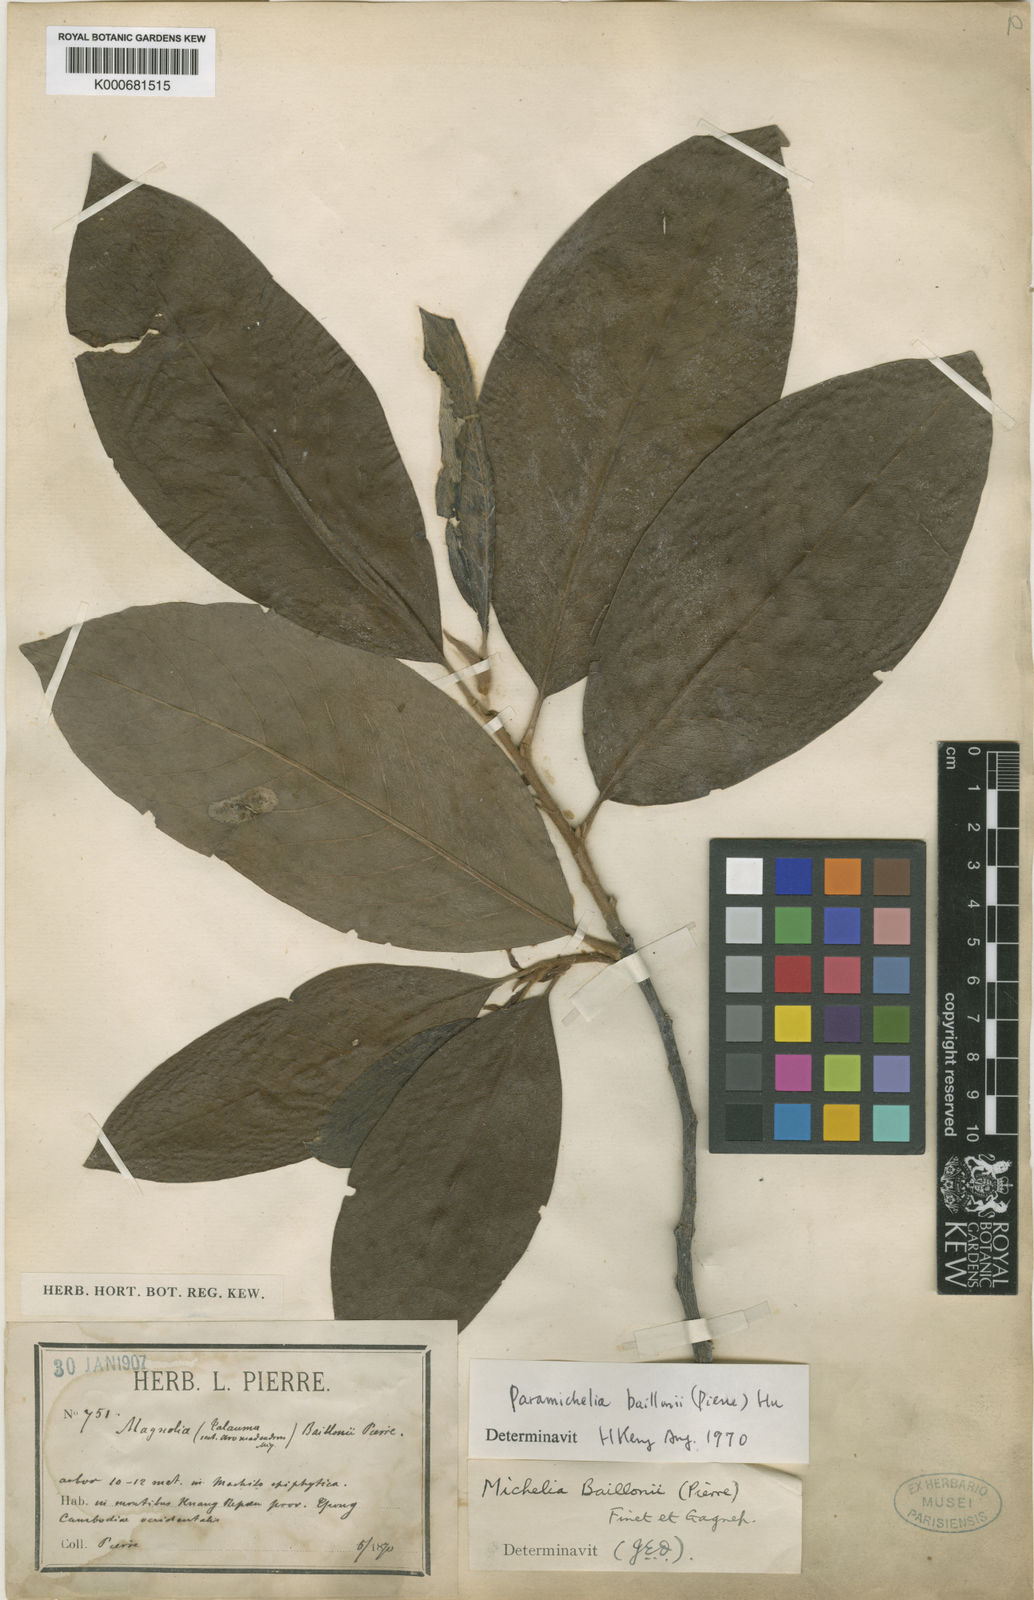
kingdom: Plantae
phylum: Tracheophyta
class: Magnoliopsida
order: Magnoliales
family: Magnoliaceae
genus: Magnolia
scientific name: Magnolia baillonii
